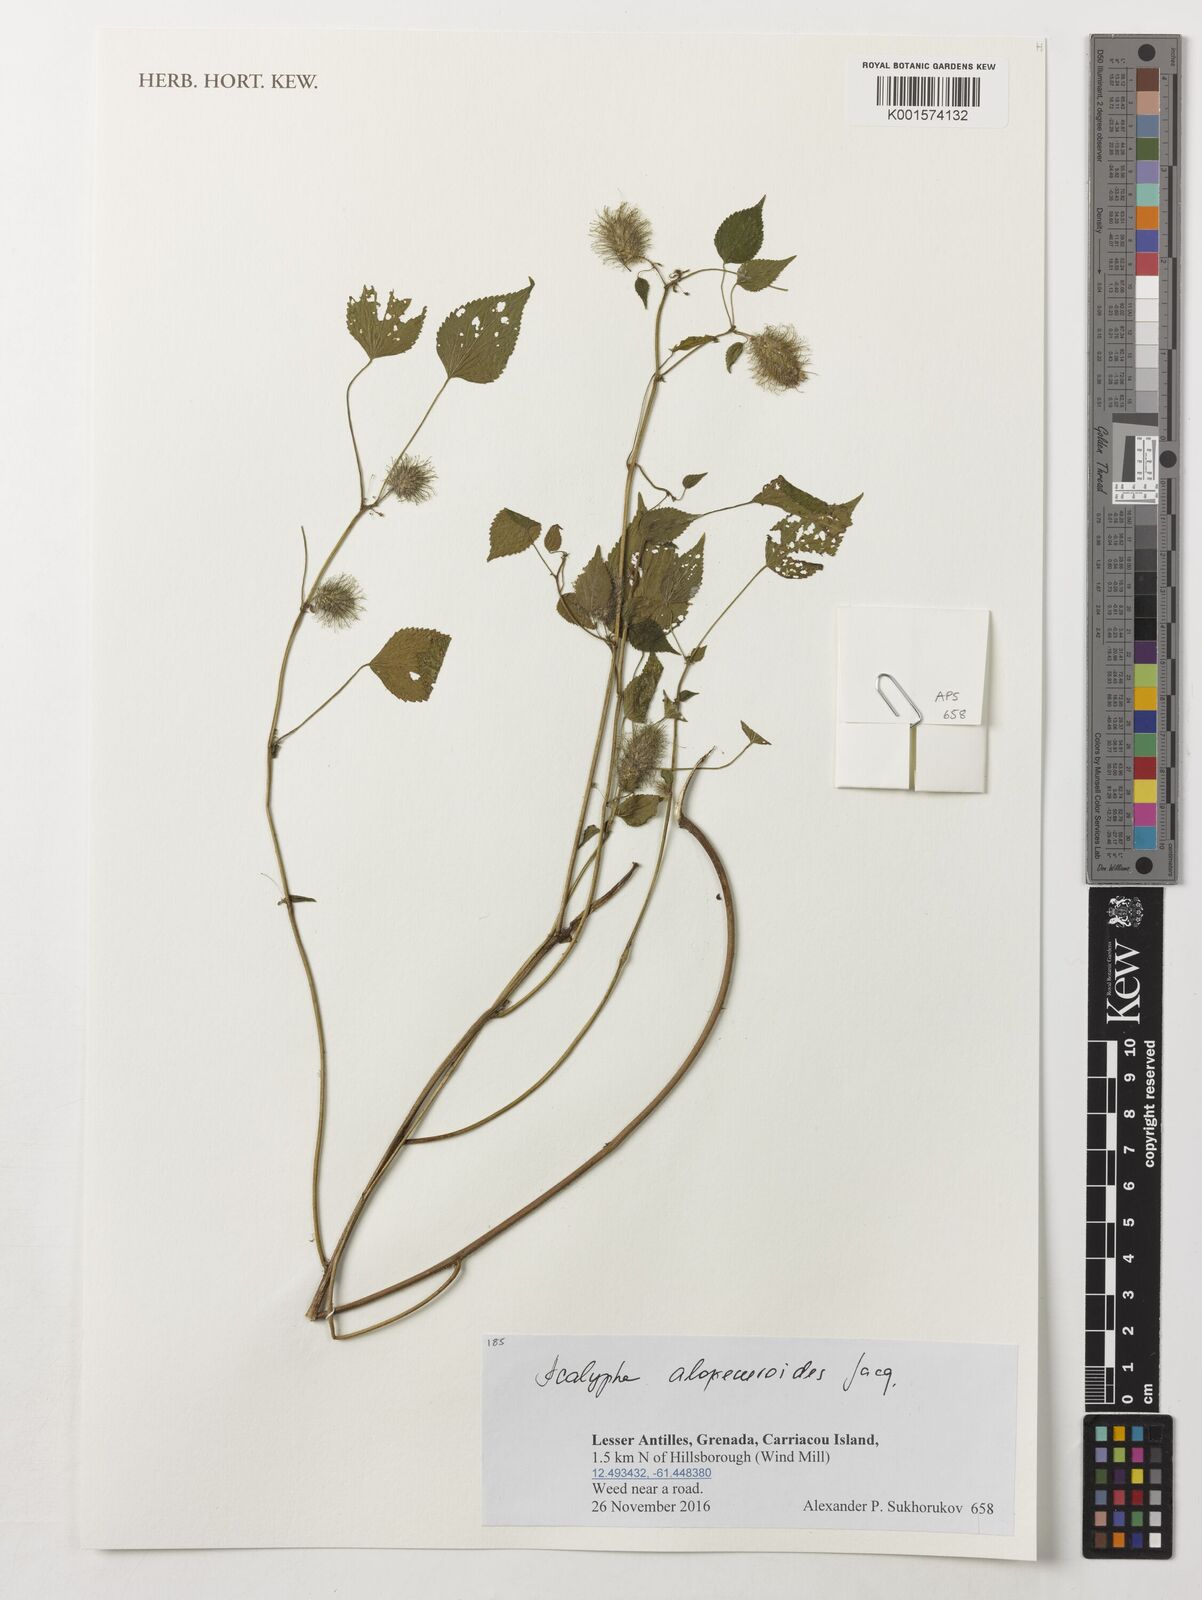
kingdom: Plantae
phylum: Tracheophyta
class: Magnoliopsida
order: Malpighiales
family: Euphorbiaceae
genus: Acalypha
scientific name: Acalypha alopecuroidea
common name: Foxtail copperleaf
